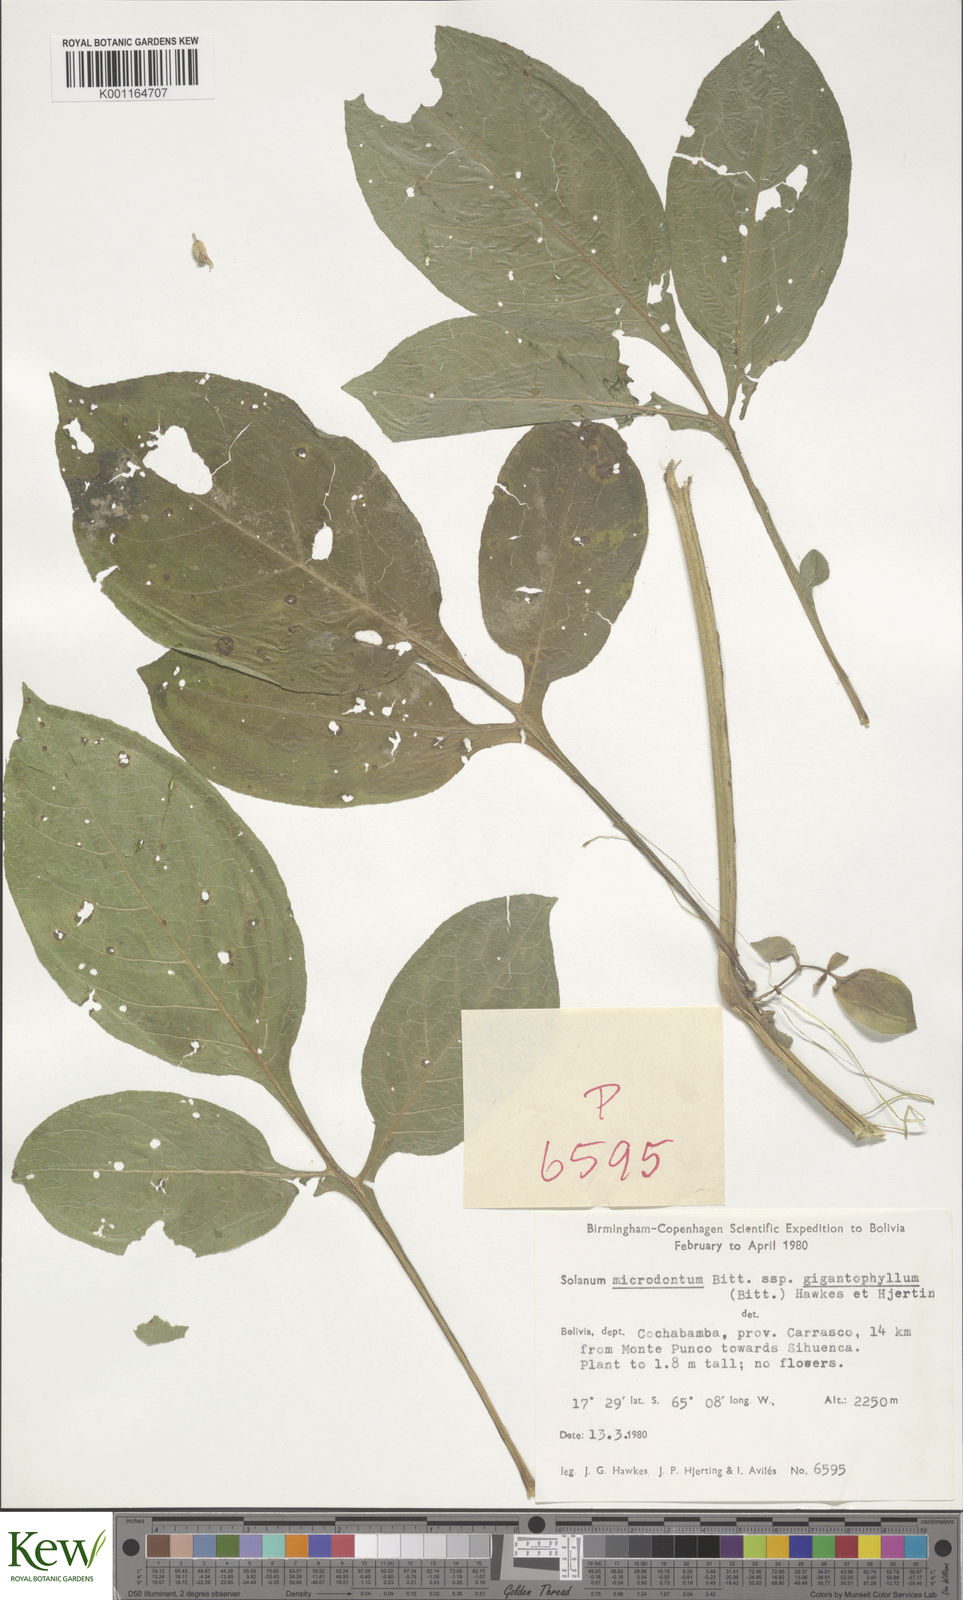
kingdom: Plantae
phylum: Tracheophyta
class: Magnoliopsida
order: Solanales
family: Solanaceae
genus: Solanum
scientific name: Solanum microdontum
